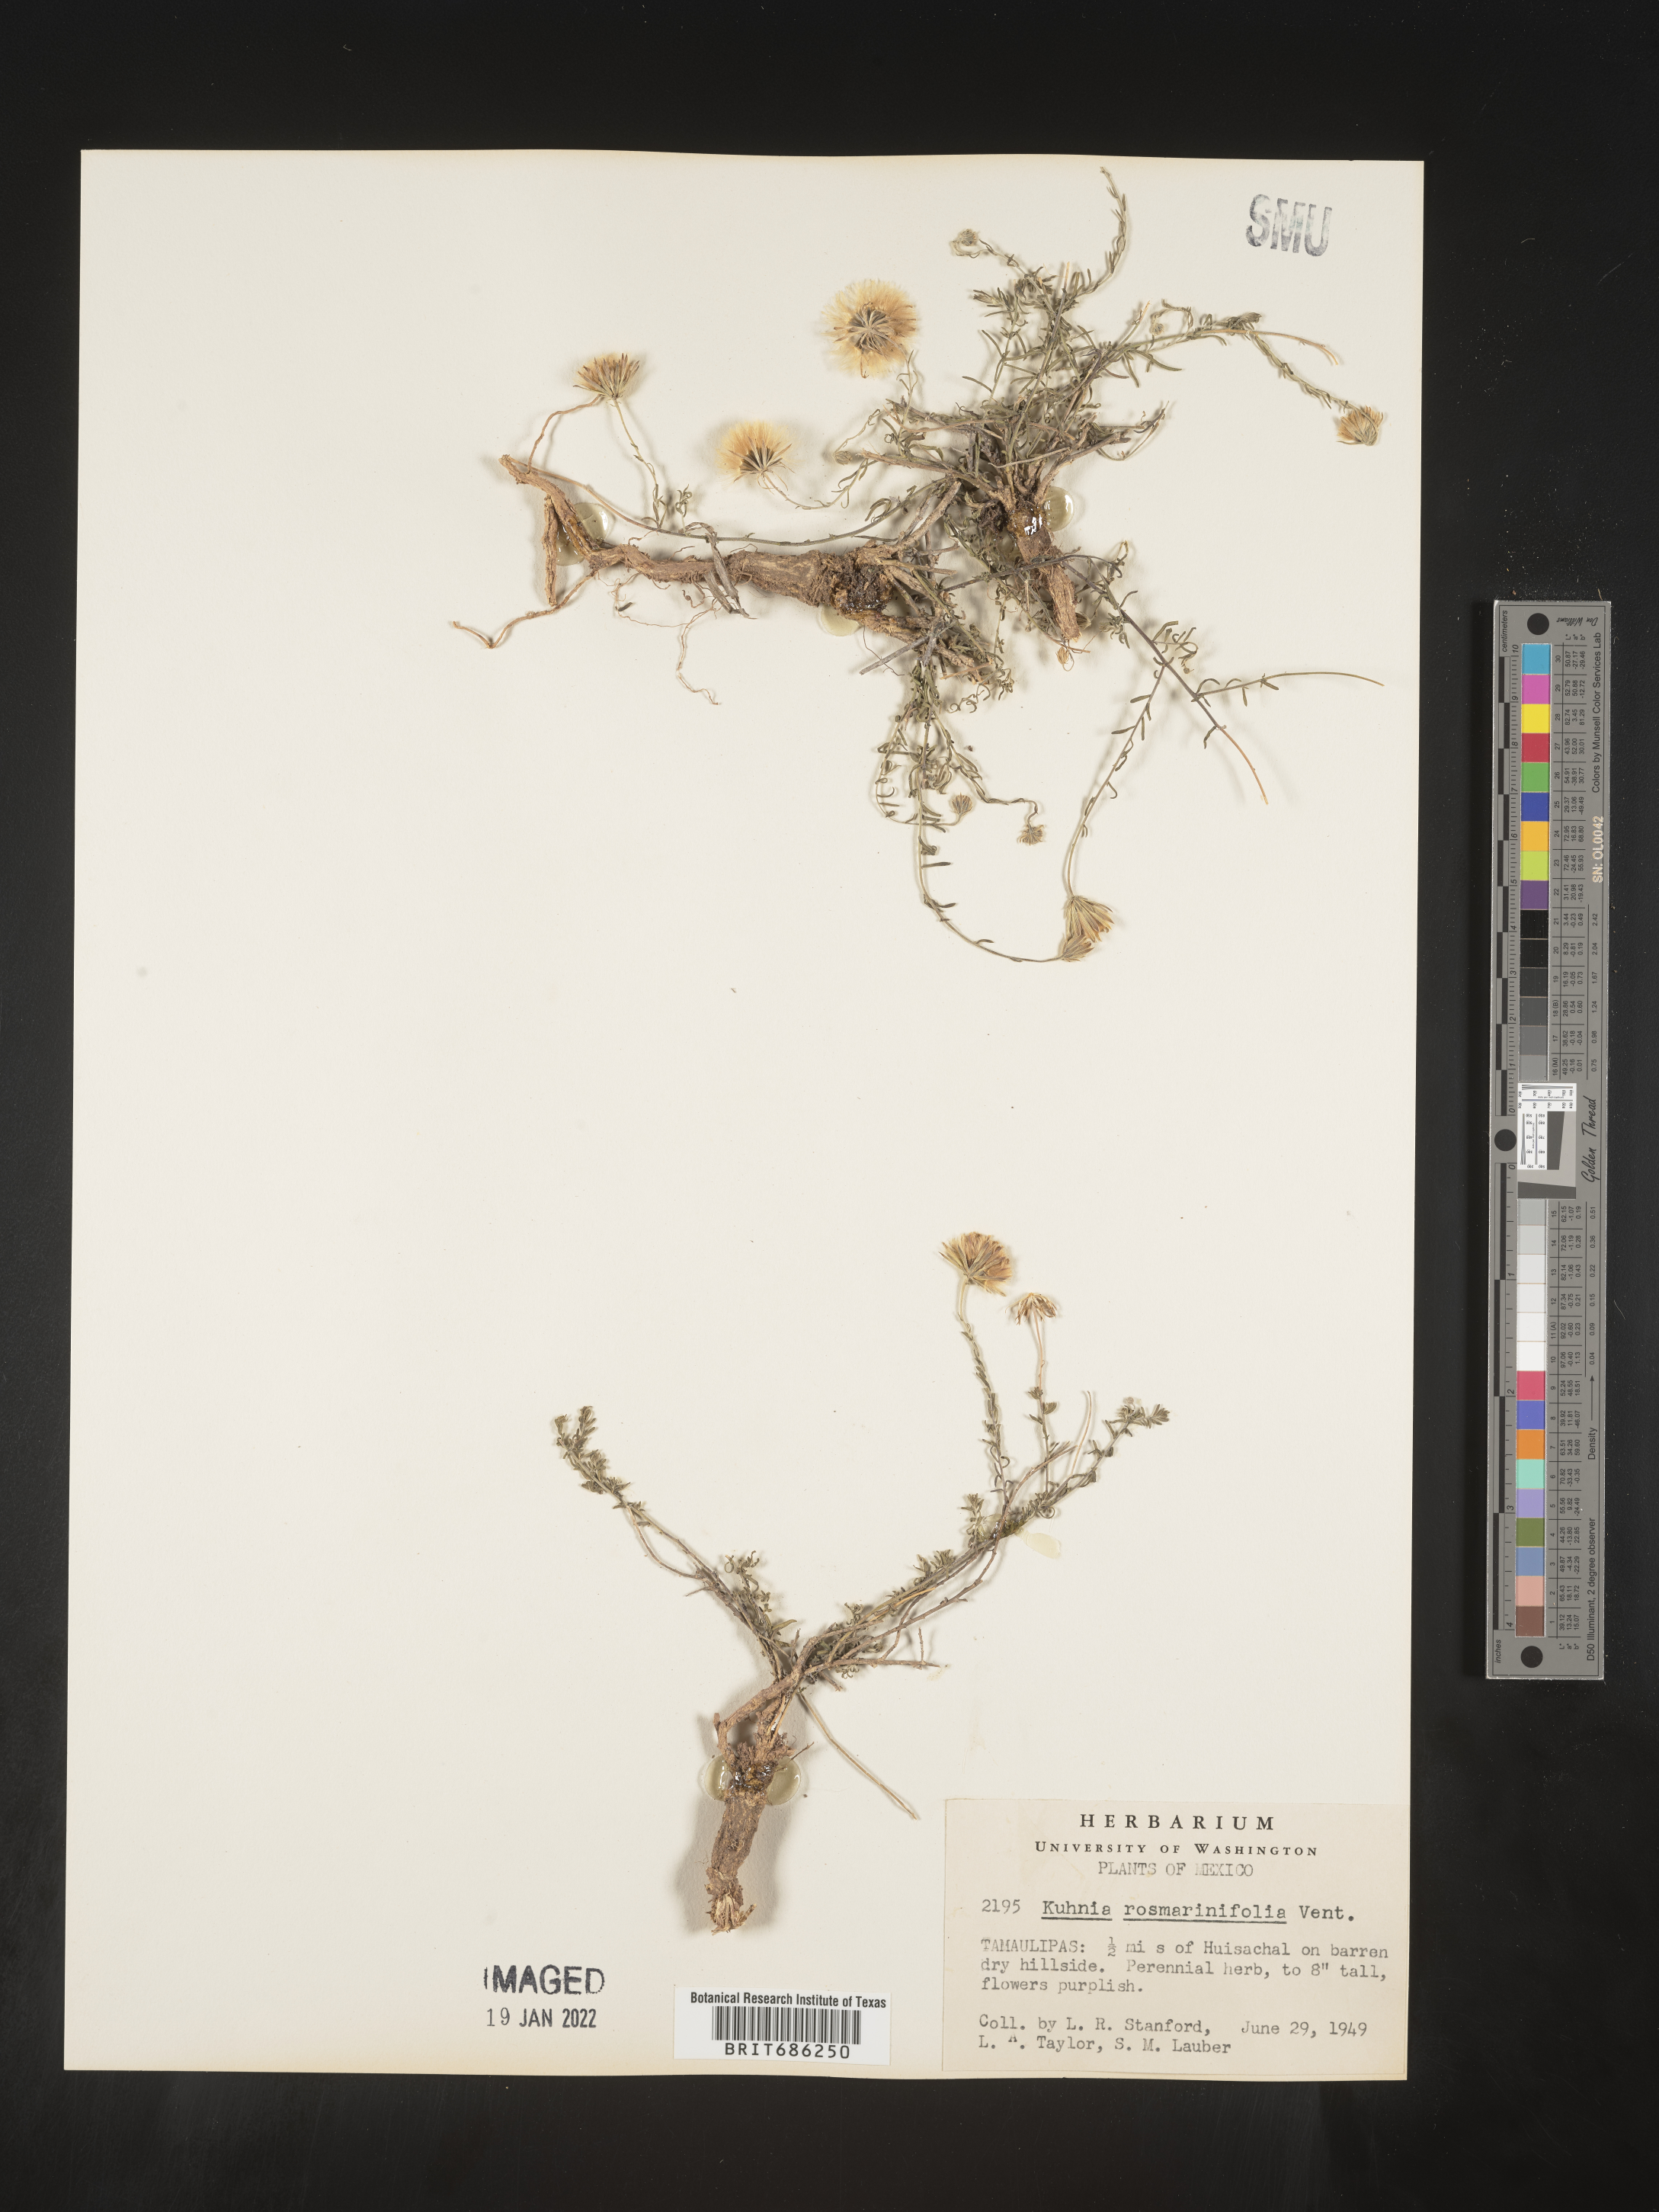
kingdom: Plantae
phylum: Tracheophyta
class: Magnoliopsida
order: Asterales
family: Asteraceae
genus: Brickellia
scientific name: Brickellia
